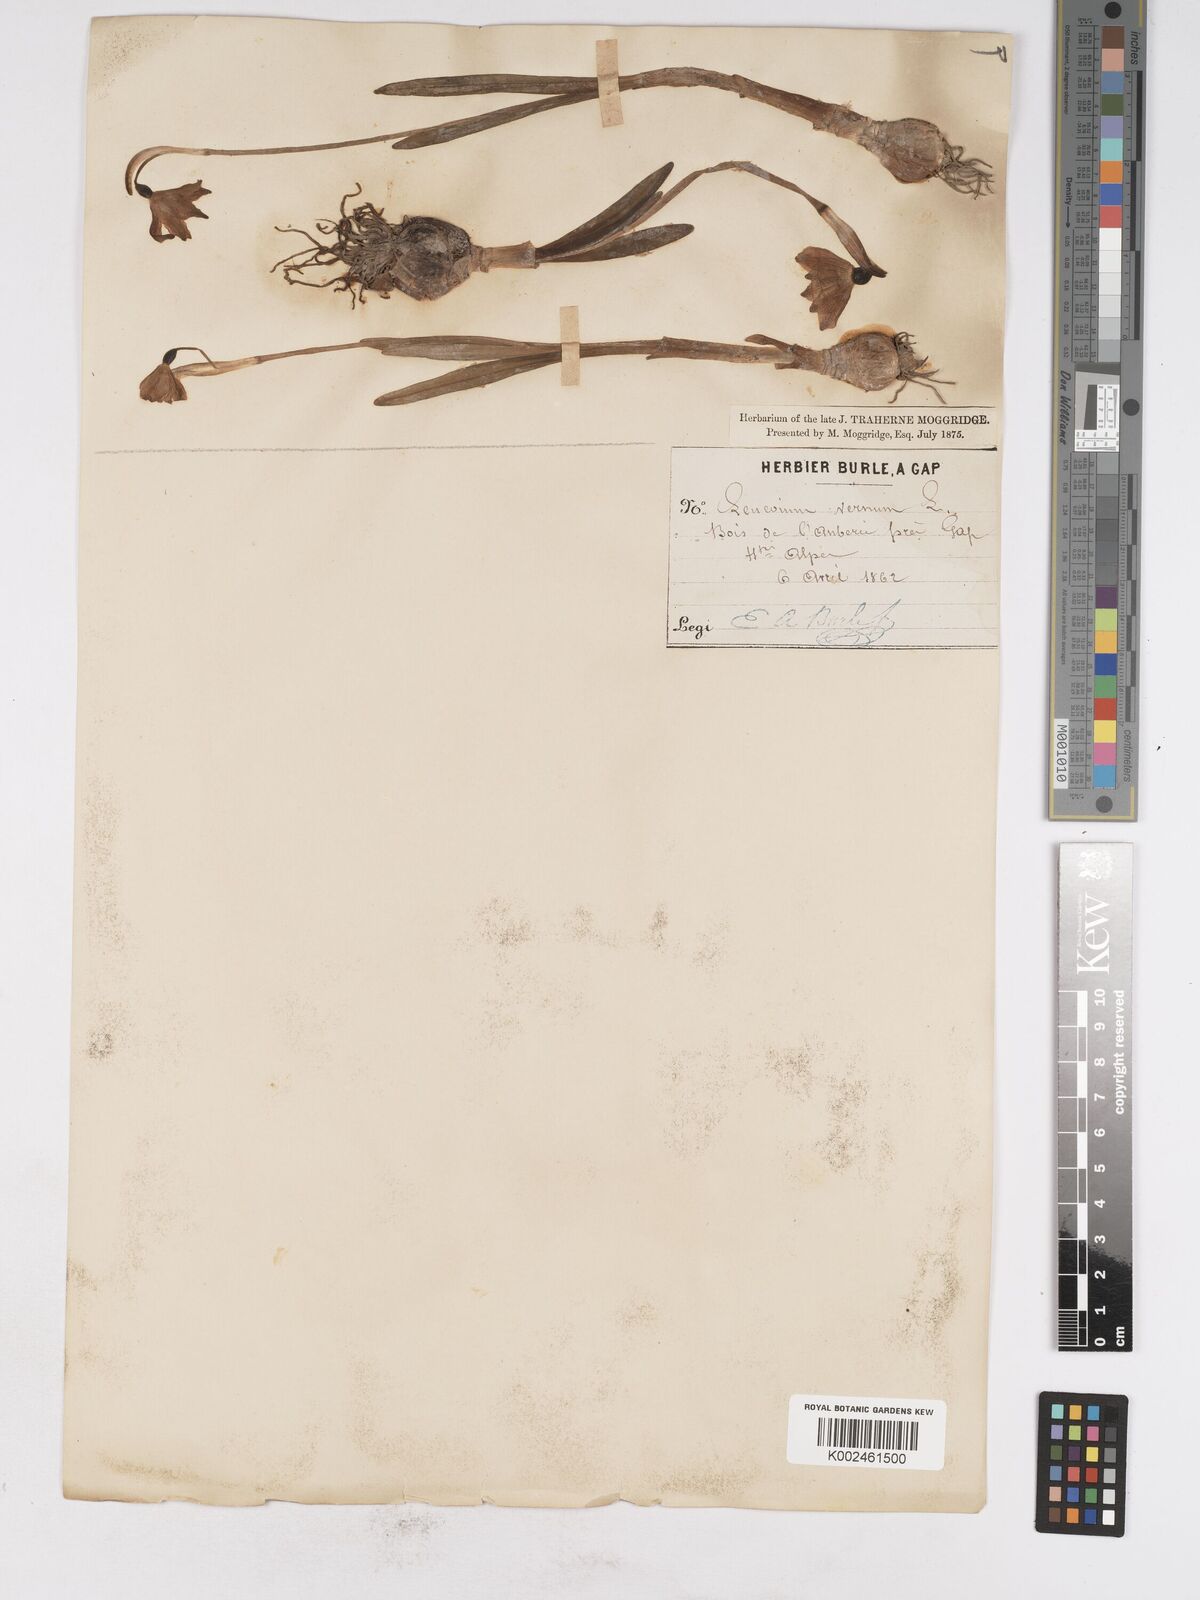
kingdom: Plantae
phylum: Tracheophyta
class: Liliopsida
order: Asparagales
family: Amaryllidaceae
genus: Leucojum
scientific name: Leucojum vernum
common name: Spring snowflake
